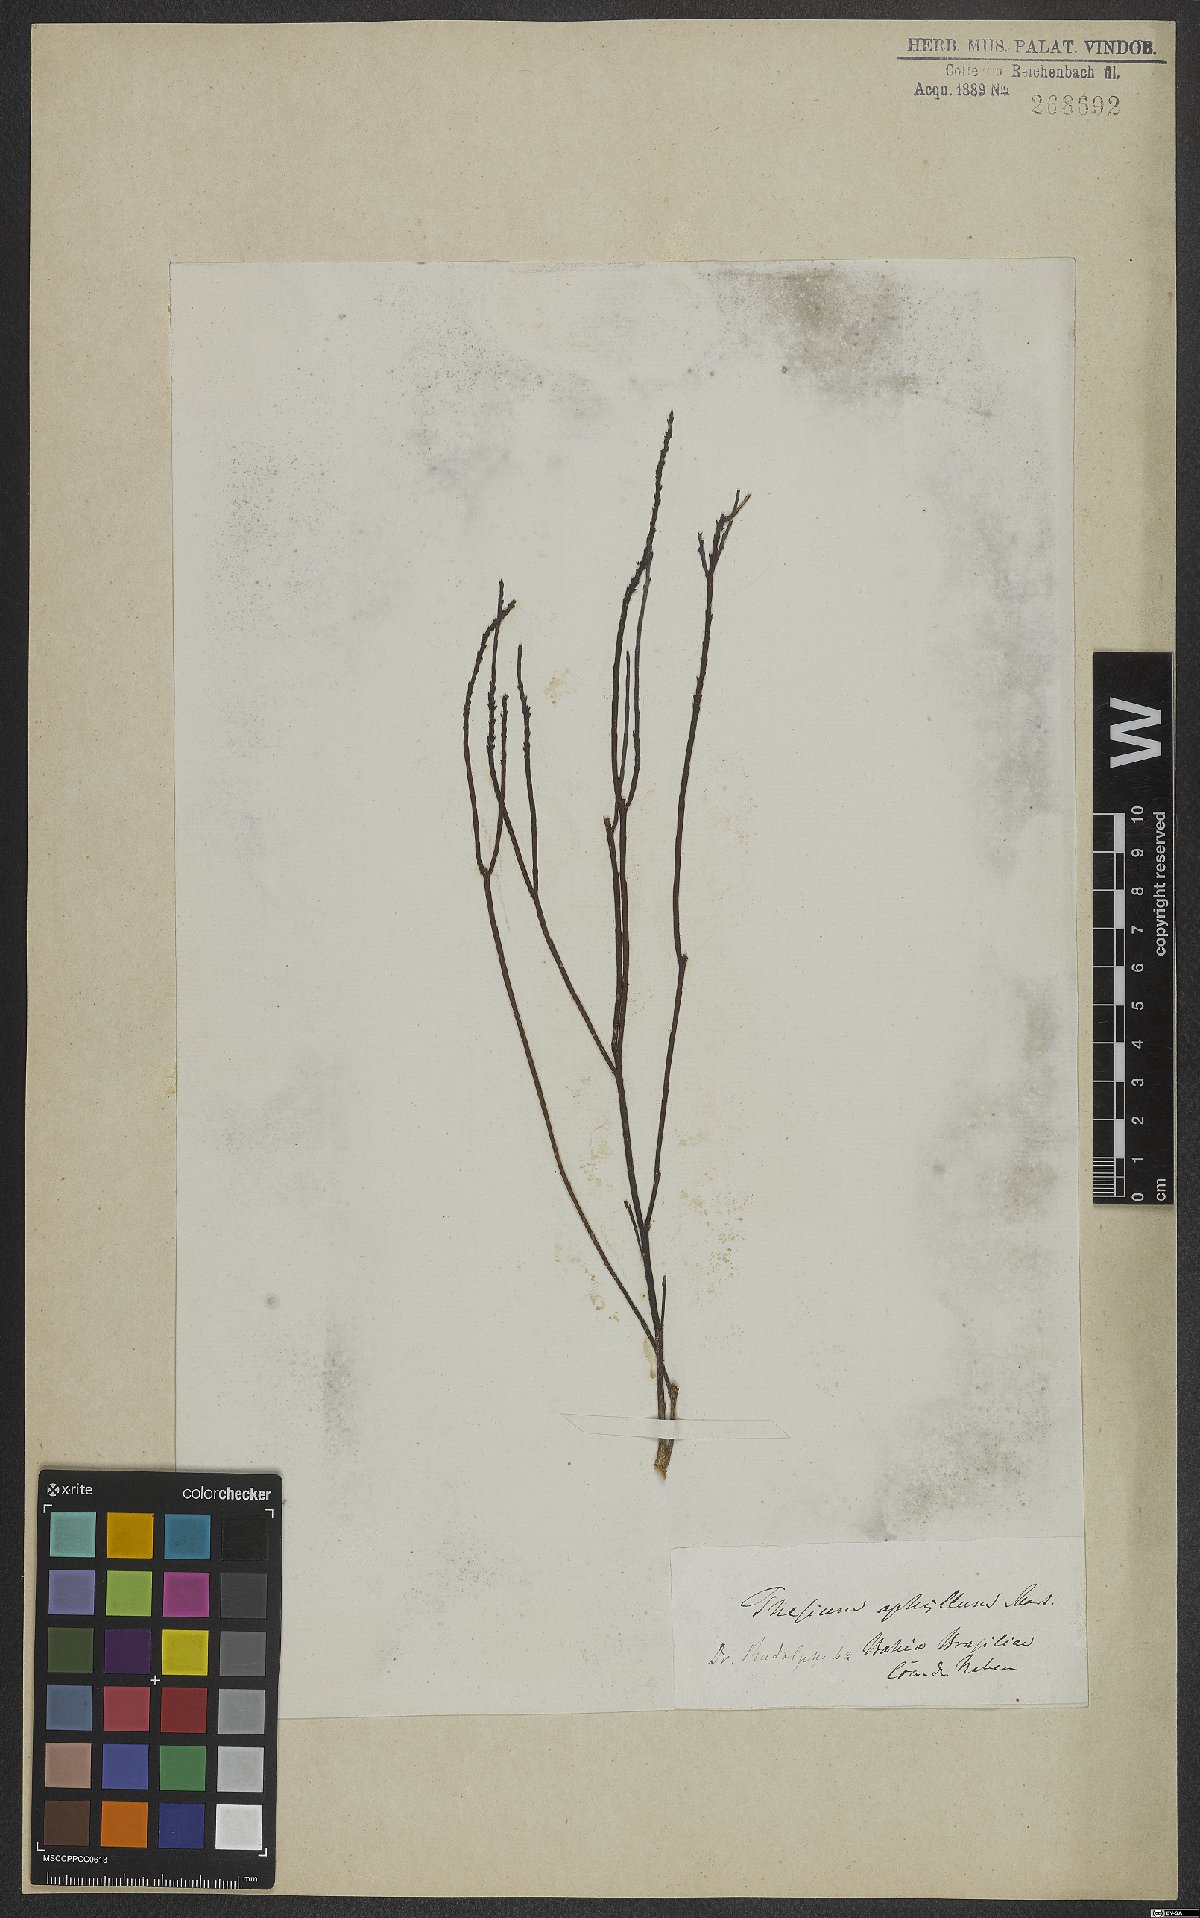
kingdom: Plantae
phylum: Tracheophyta
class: Magnoliopsida
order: Santalales
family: Thesiaceae
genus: Austroamericium
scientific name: Austroamericium aphyllum
